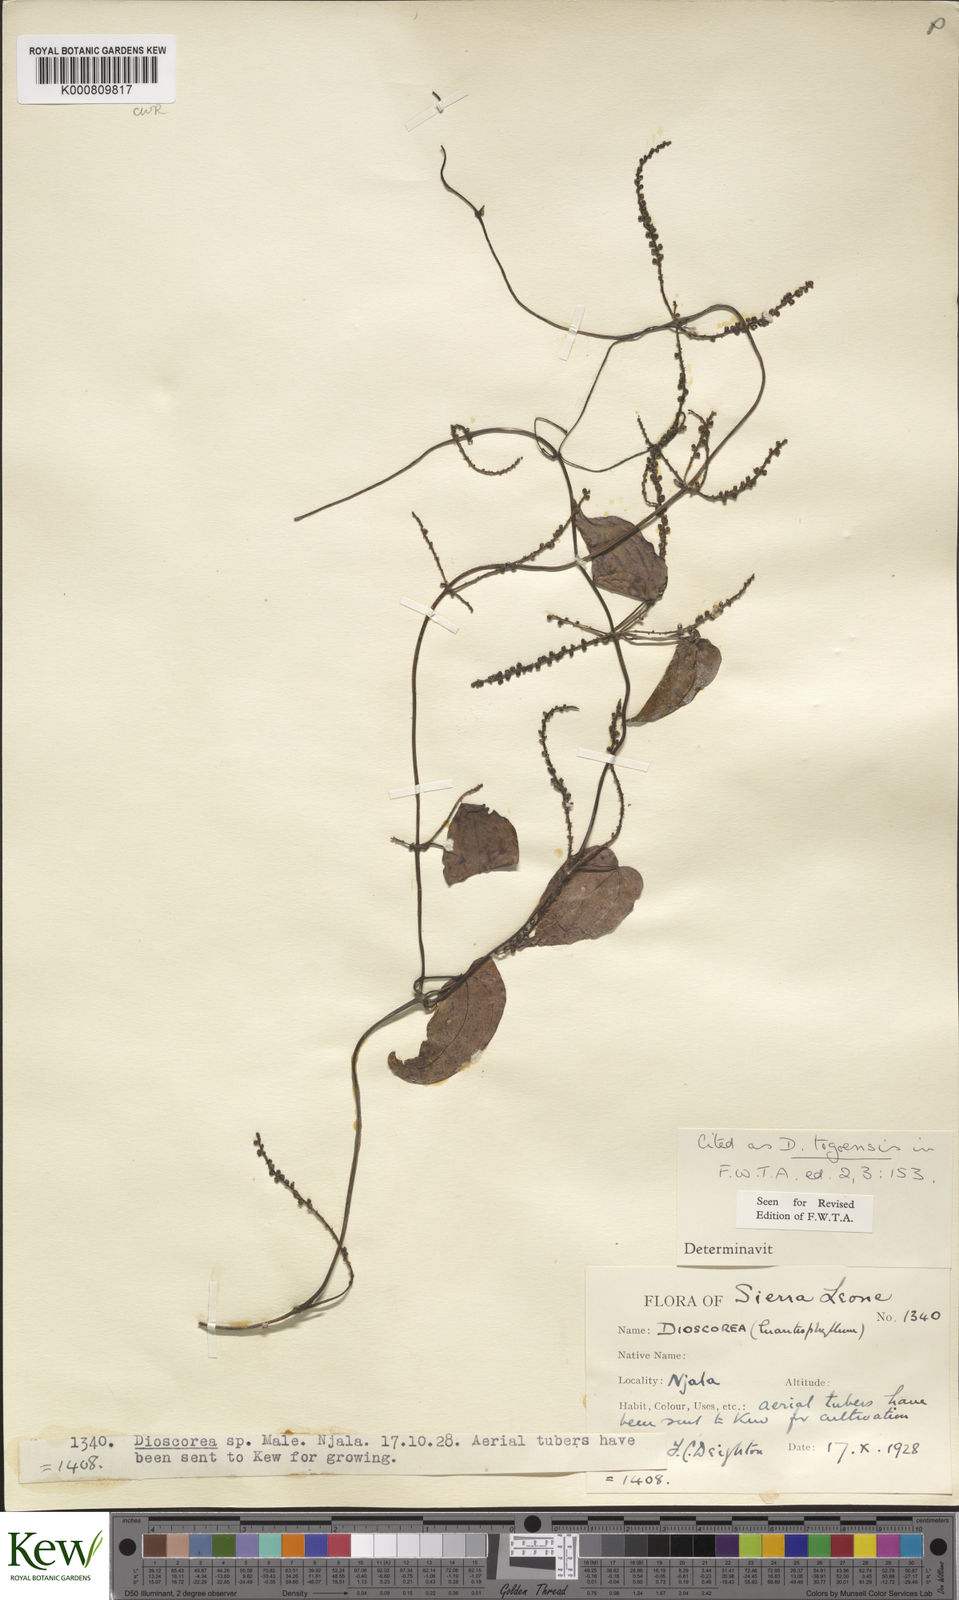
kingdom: Plantae
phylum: Tracheophyta
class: Liliopsida
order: Dioscoreales
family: Dioscoreaceae
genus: Dioscorea
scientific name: Dioscorea togoensis
